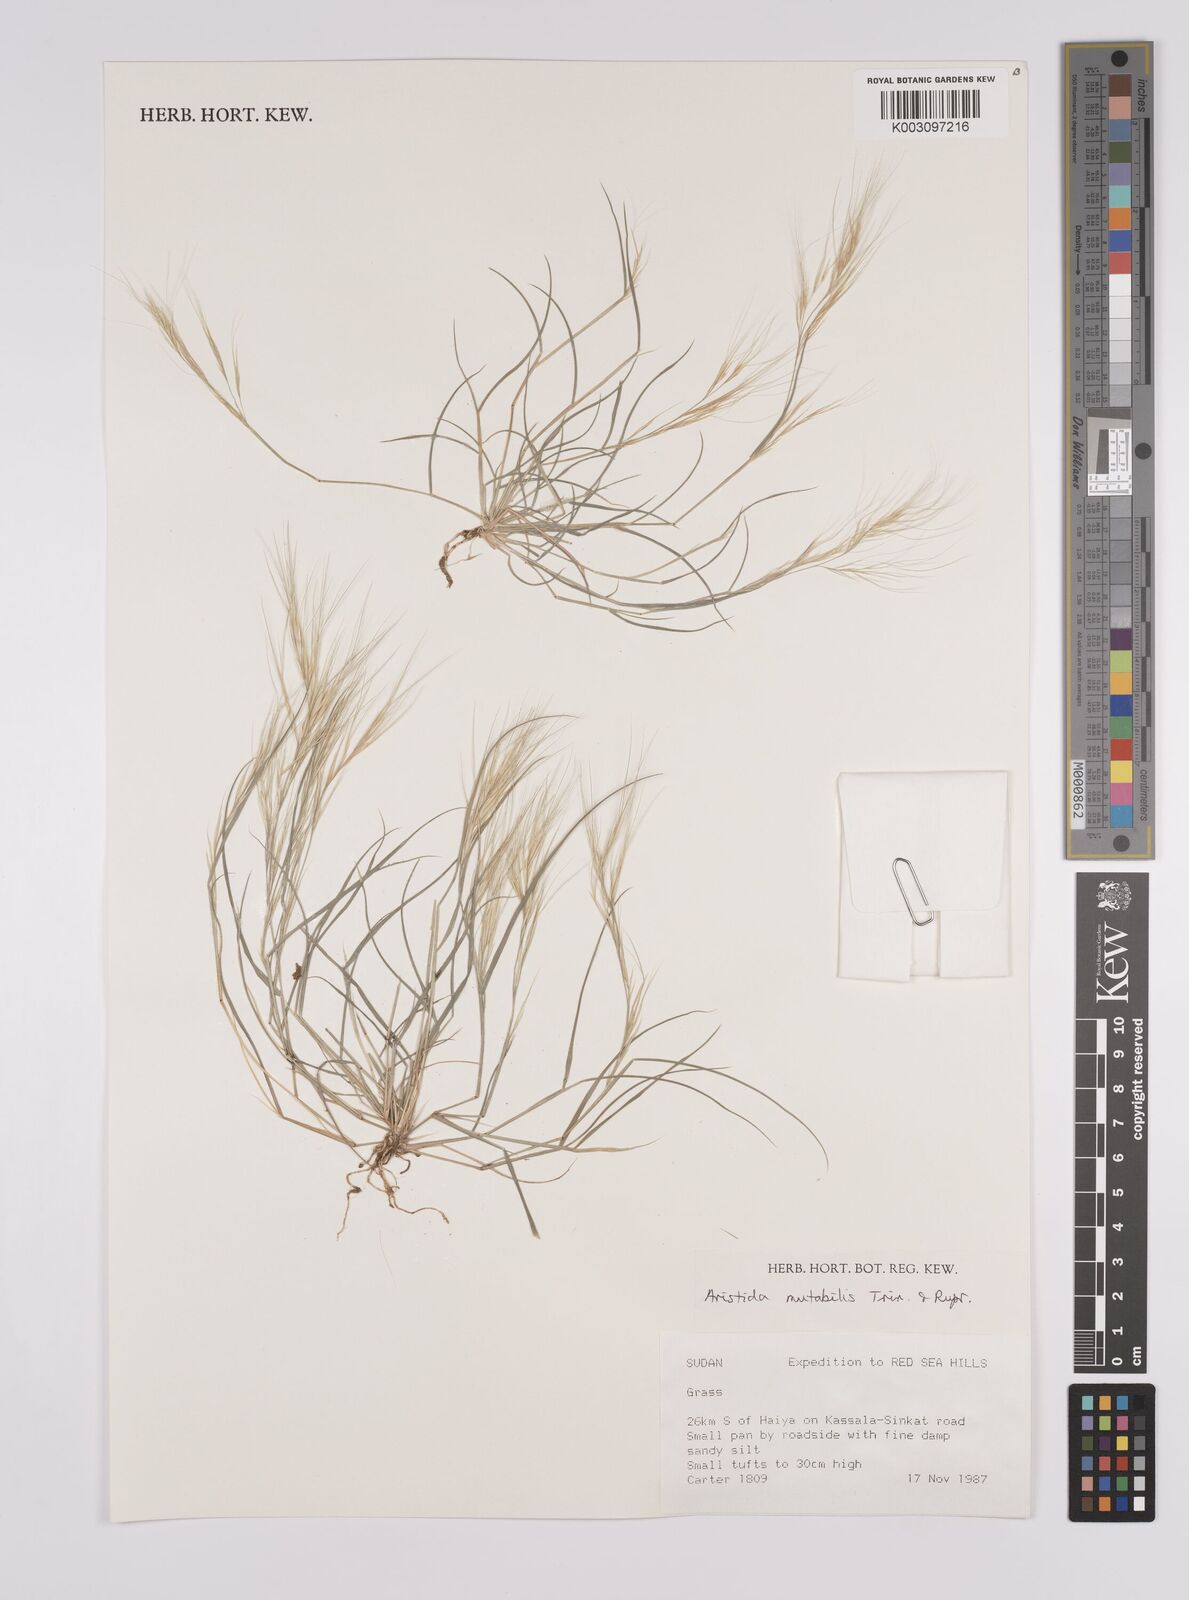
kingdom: Plantae
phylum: Tracheophyta
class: Liliopsida
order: Poales
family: Poaceae
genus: Aristida
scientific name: Aristida mutabilis
